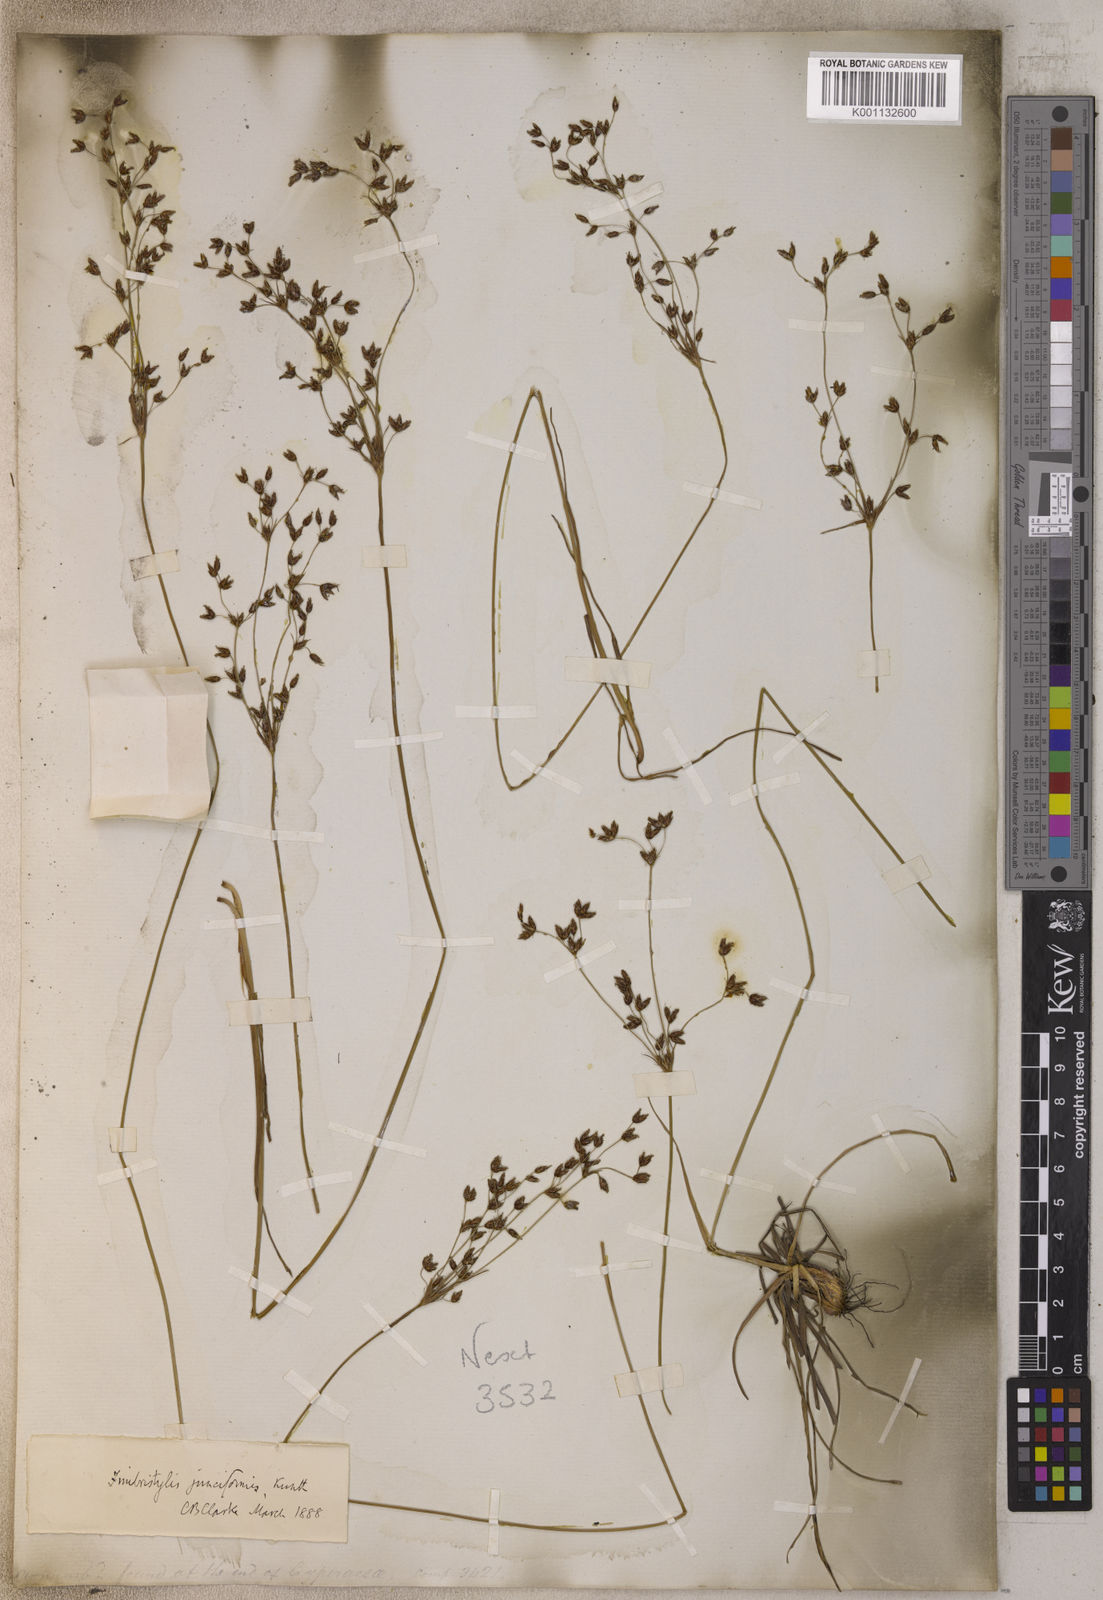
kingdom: Plantae
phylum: Tracheophyta
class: Liliopsida
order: Poales
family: Cyperaceae
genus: Fimbristylis
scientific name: Fimbristylis
